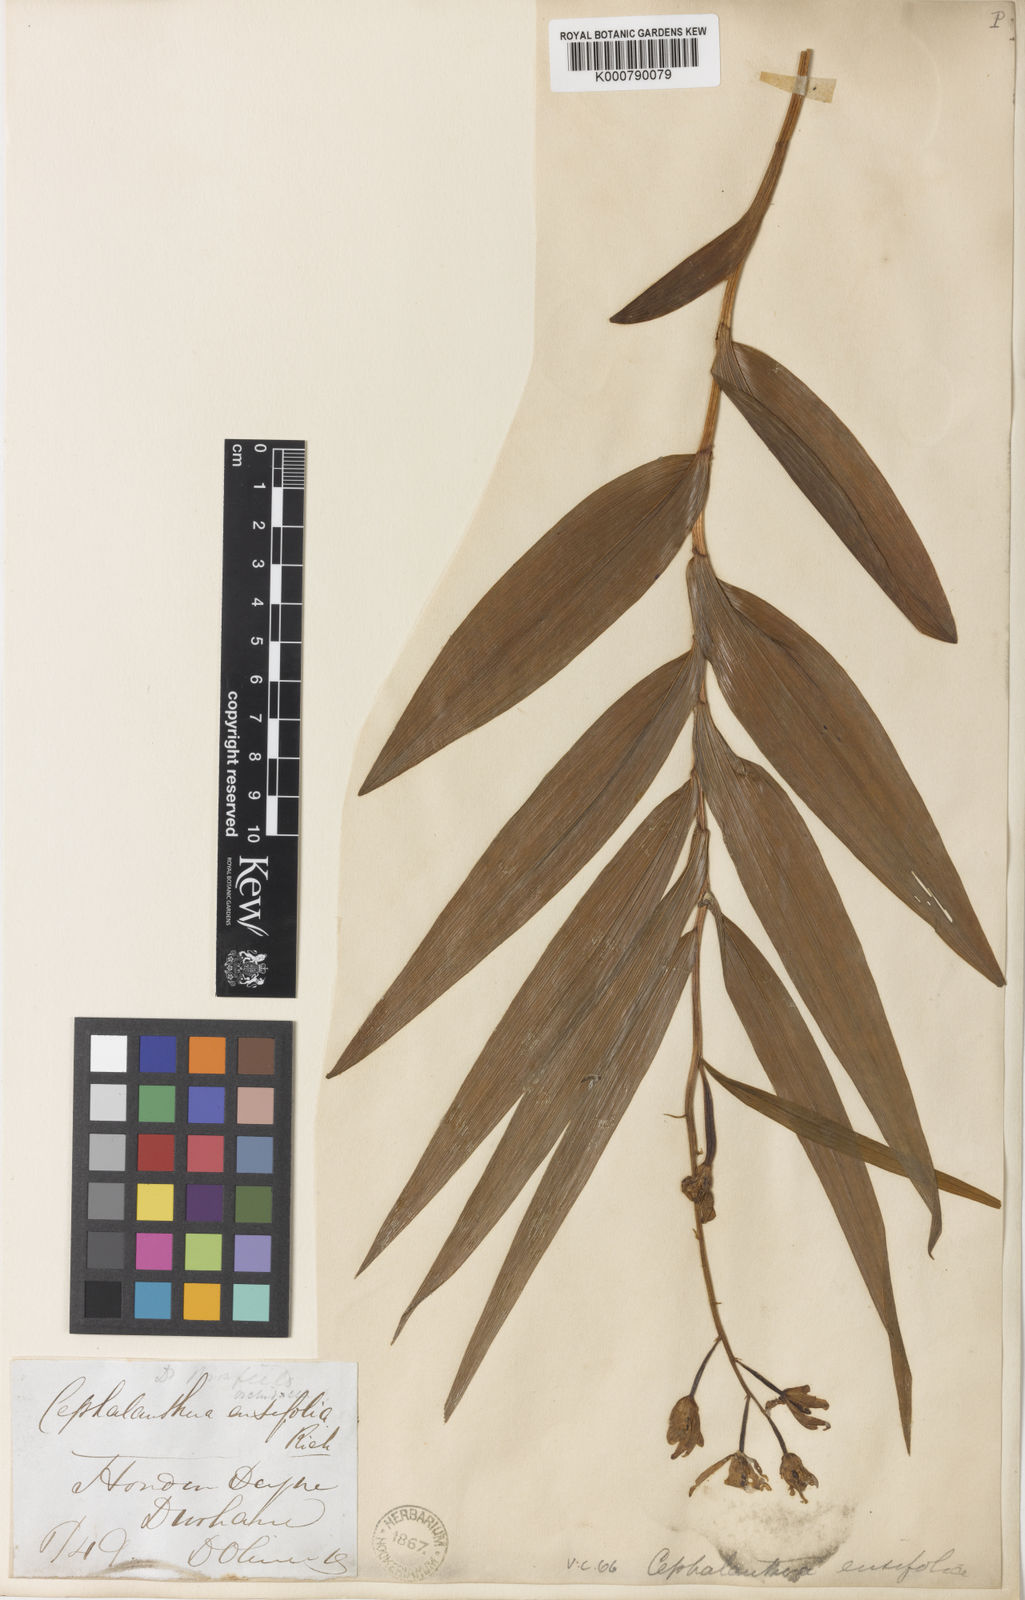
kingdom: Plantae
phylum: Tracheophyta
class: Liliopsida
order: Asparagales
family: Orchidaceae
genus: Cephalanthera
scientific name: Cephalanthera longifolia
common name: Narrow-leaved helleborine
